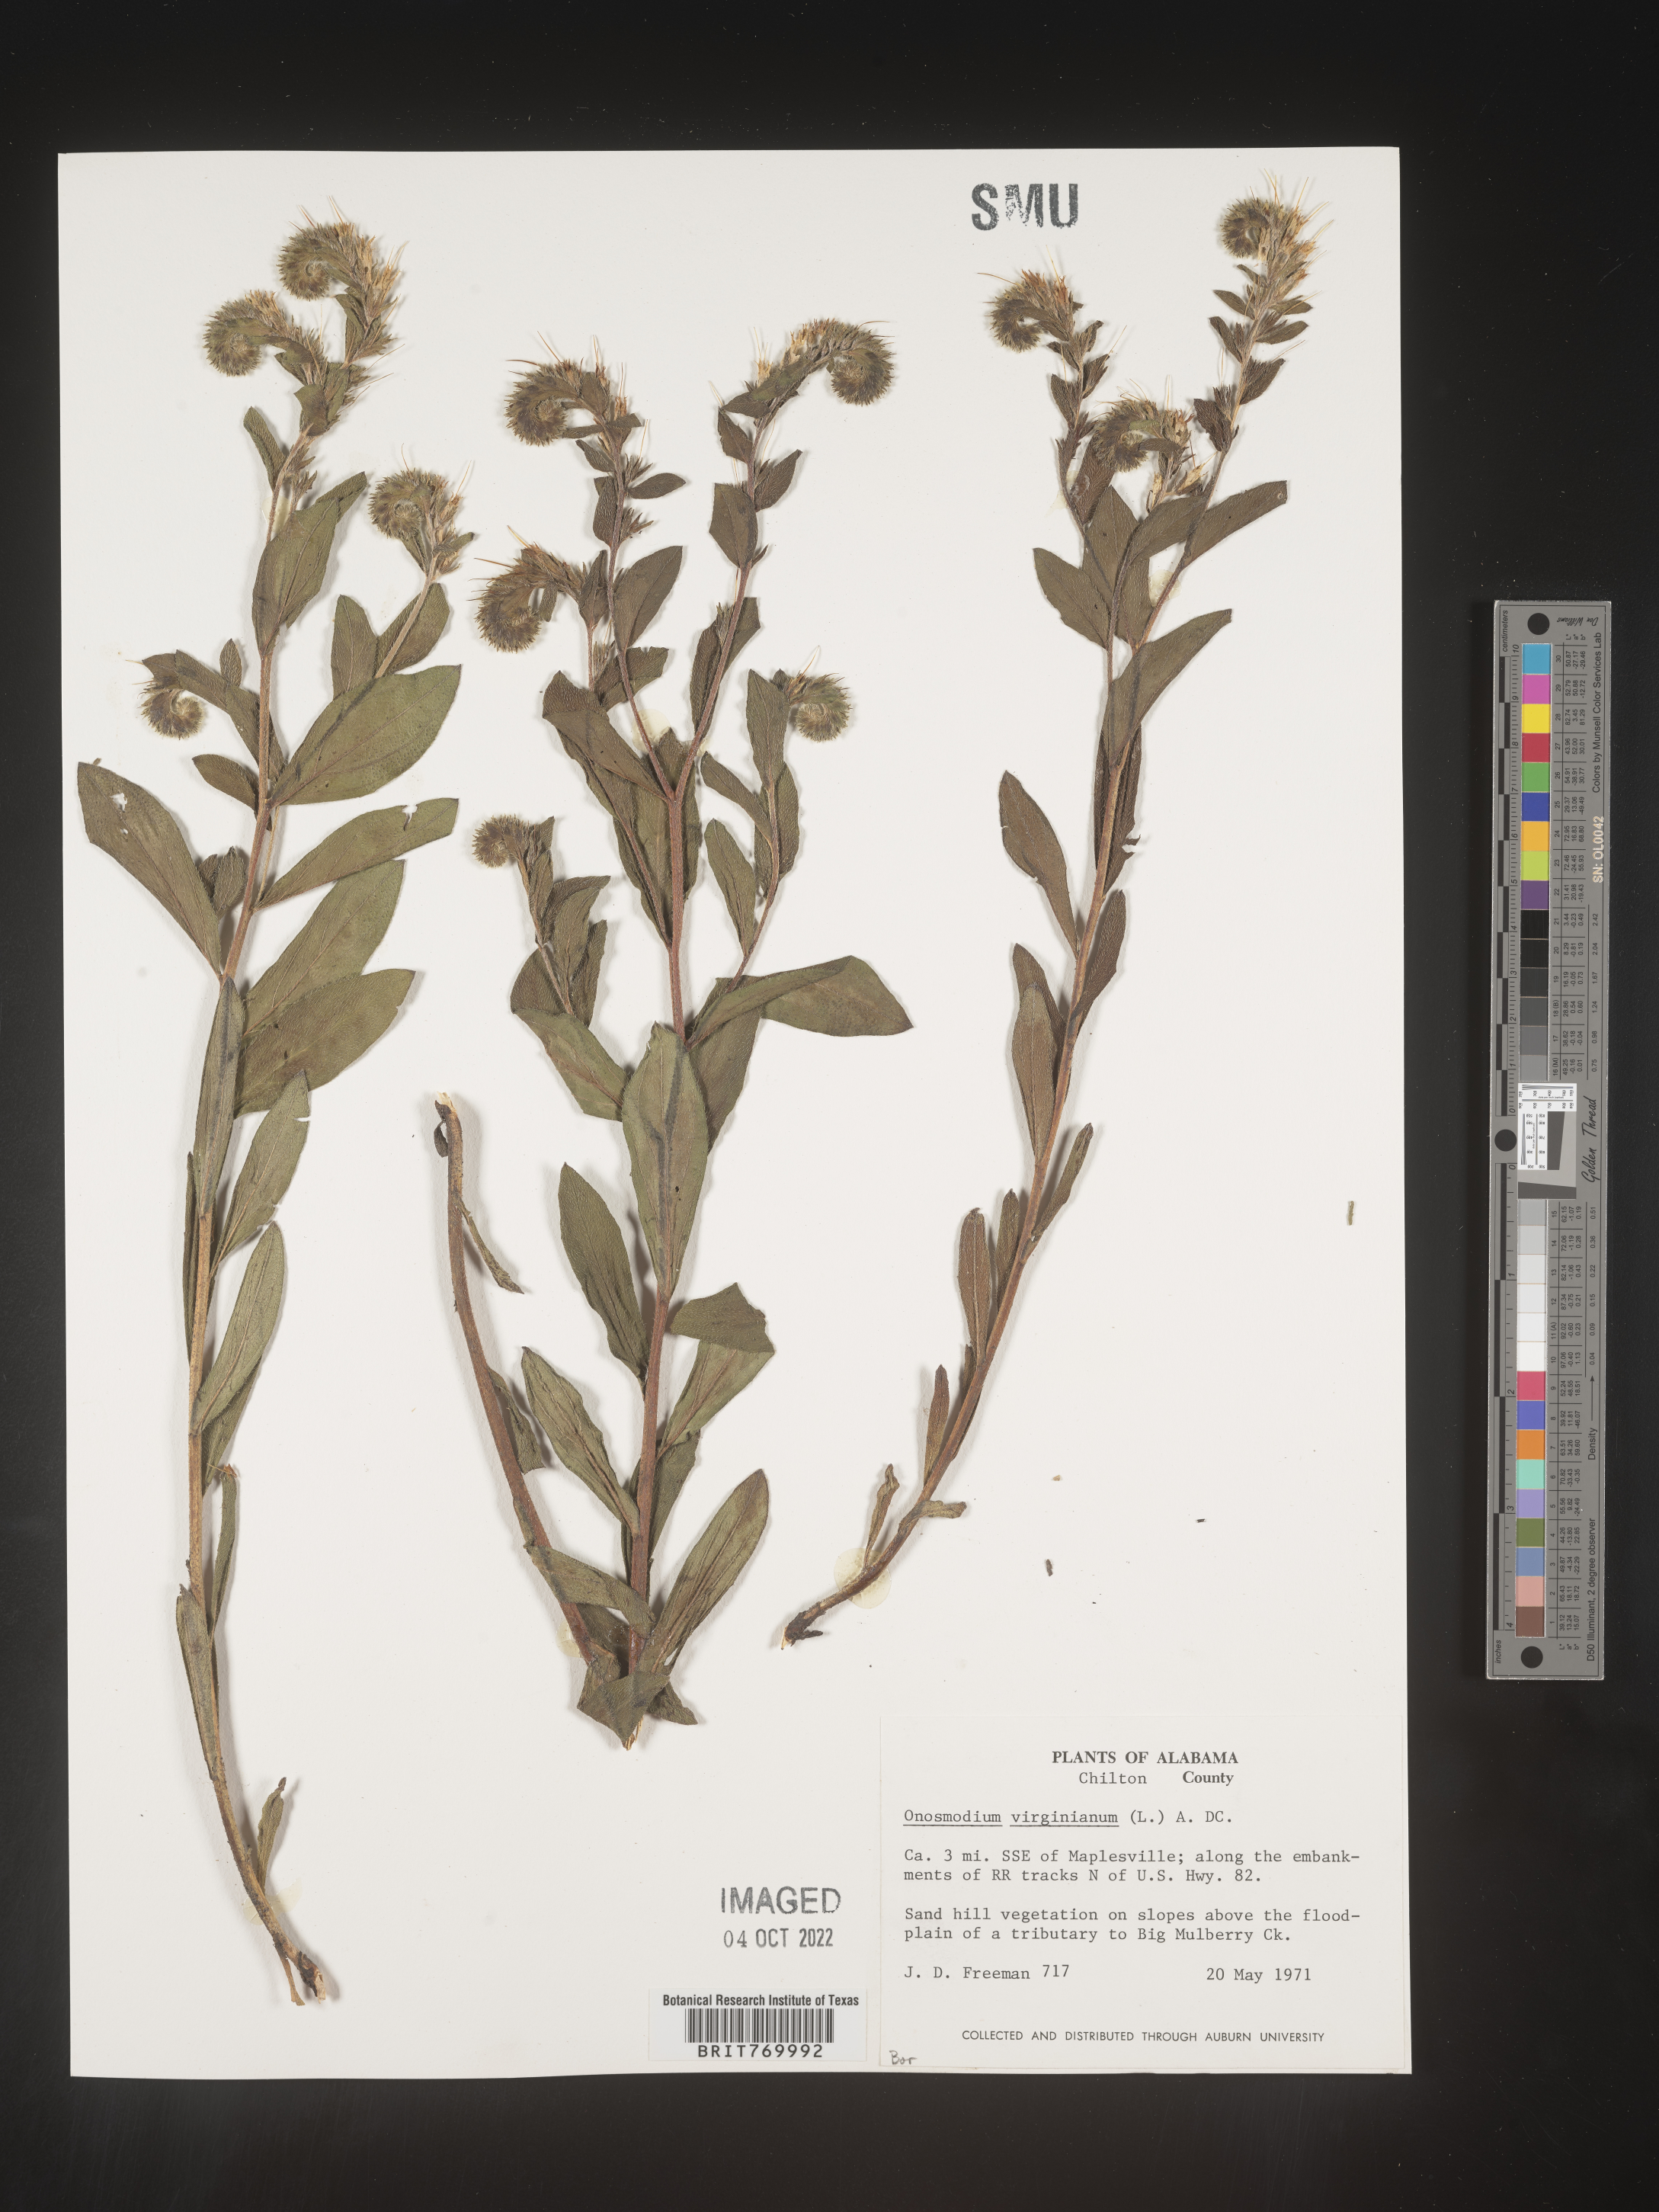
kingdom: Plantae
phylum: Tracheophyta
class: Magnoliopsida
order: Boraginales
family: Boraginaceae
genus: Lithospermum
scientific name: Lithospermum virginianum
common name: Eastern false gromwell
